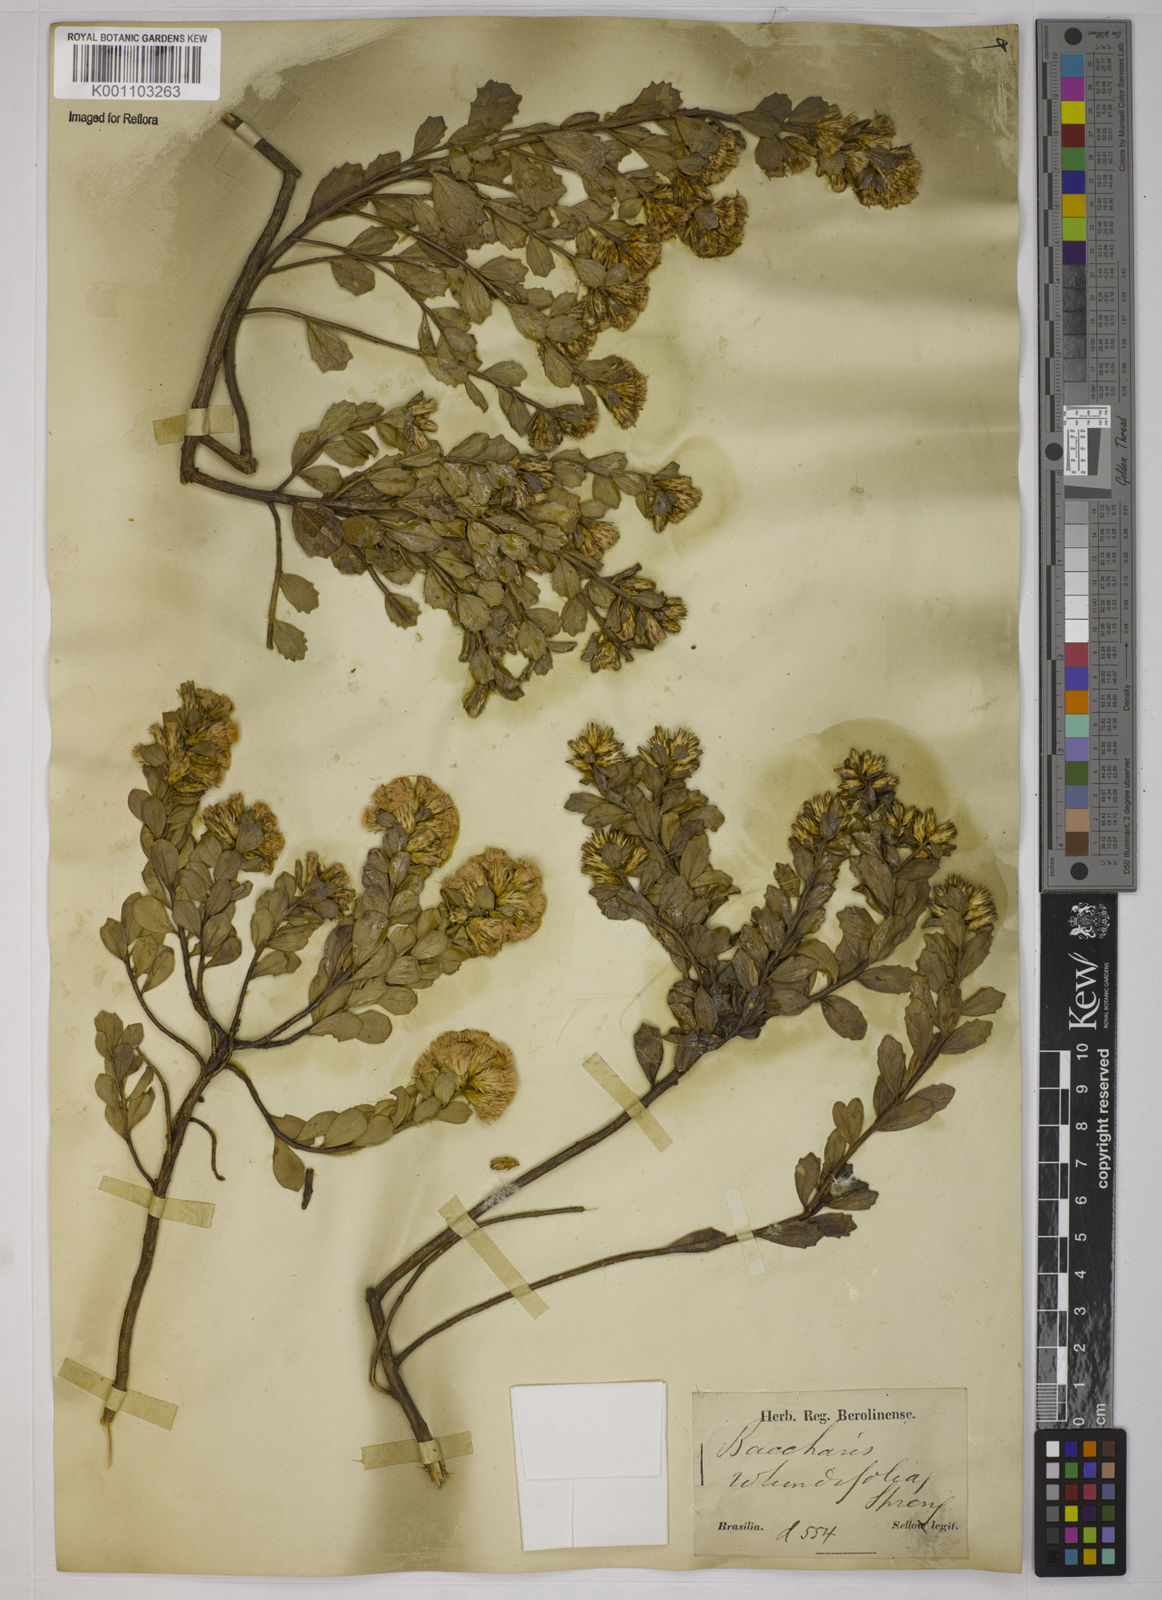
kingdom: Plantae
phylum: Tracheophyta
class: Magnoliopsida
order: Asterales
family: Asteraceae
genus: Baccharis
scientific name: Baccharis sessiliflora
